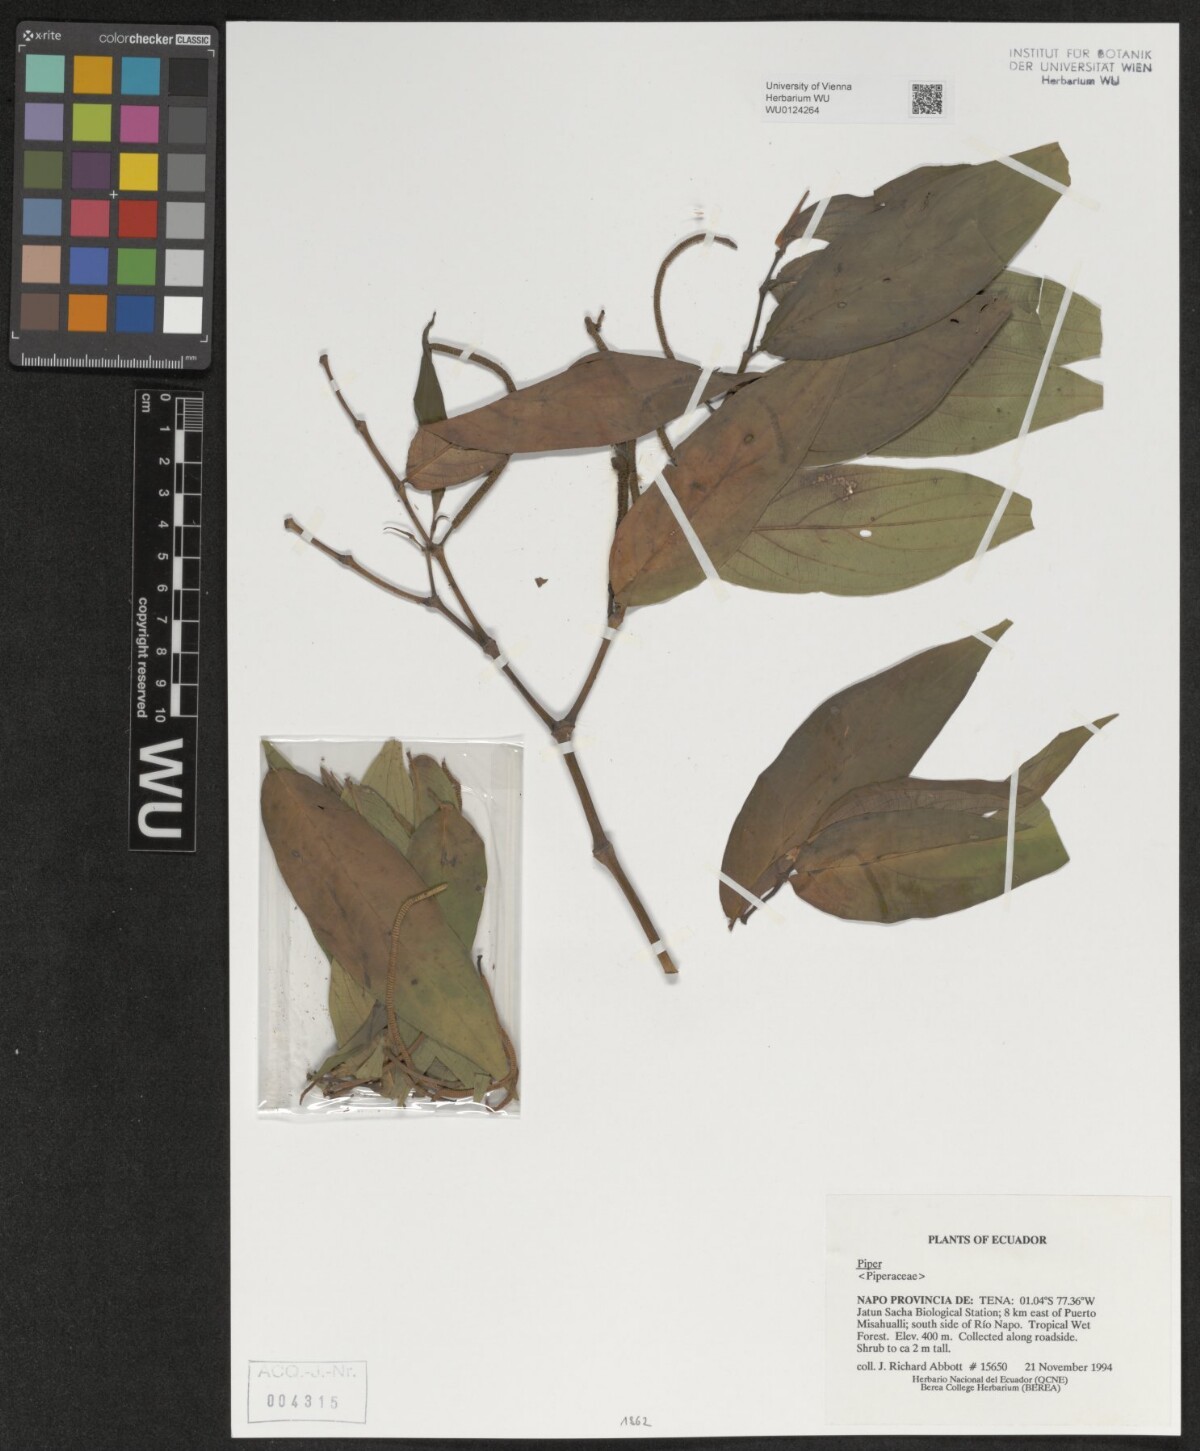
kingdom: Plantae
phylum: Tracheophyta
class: Magnoliopsida
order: Piperales
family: Piperaceae
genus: Piper
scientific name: Piper
